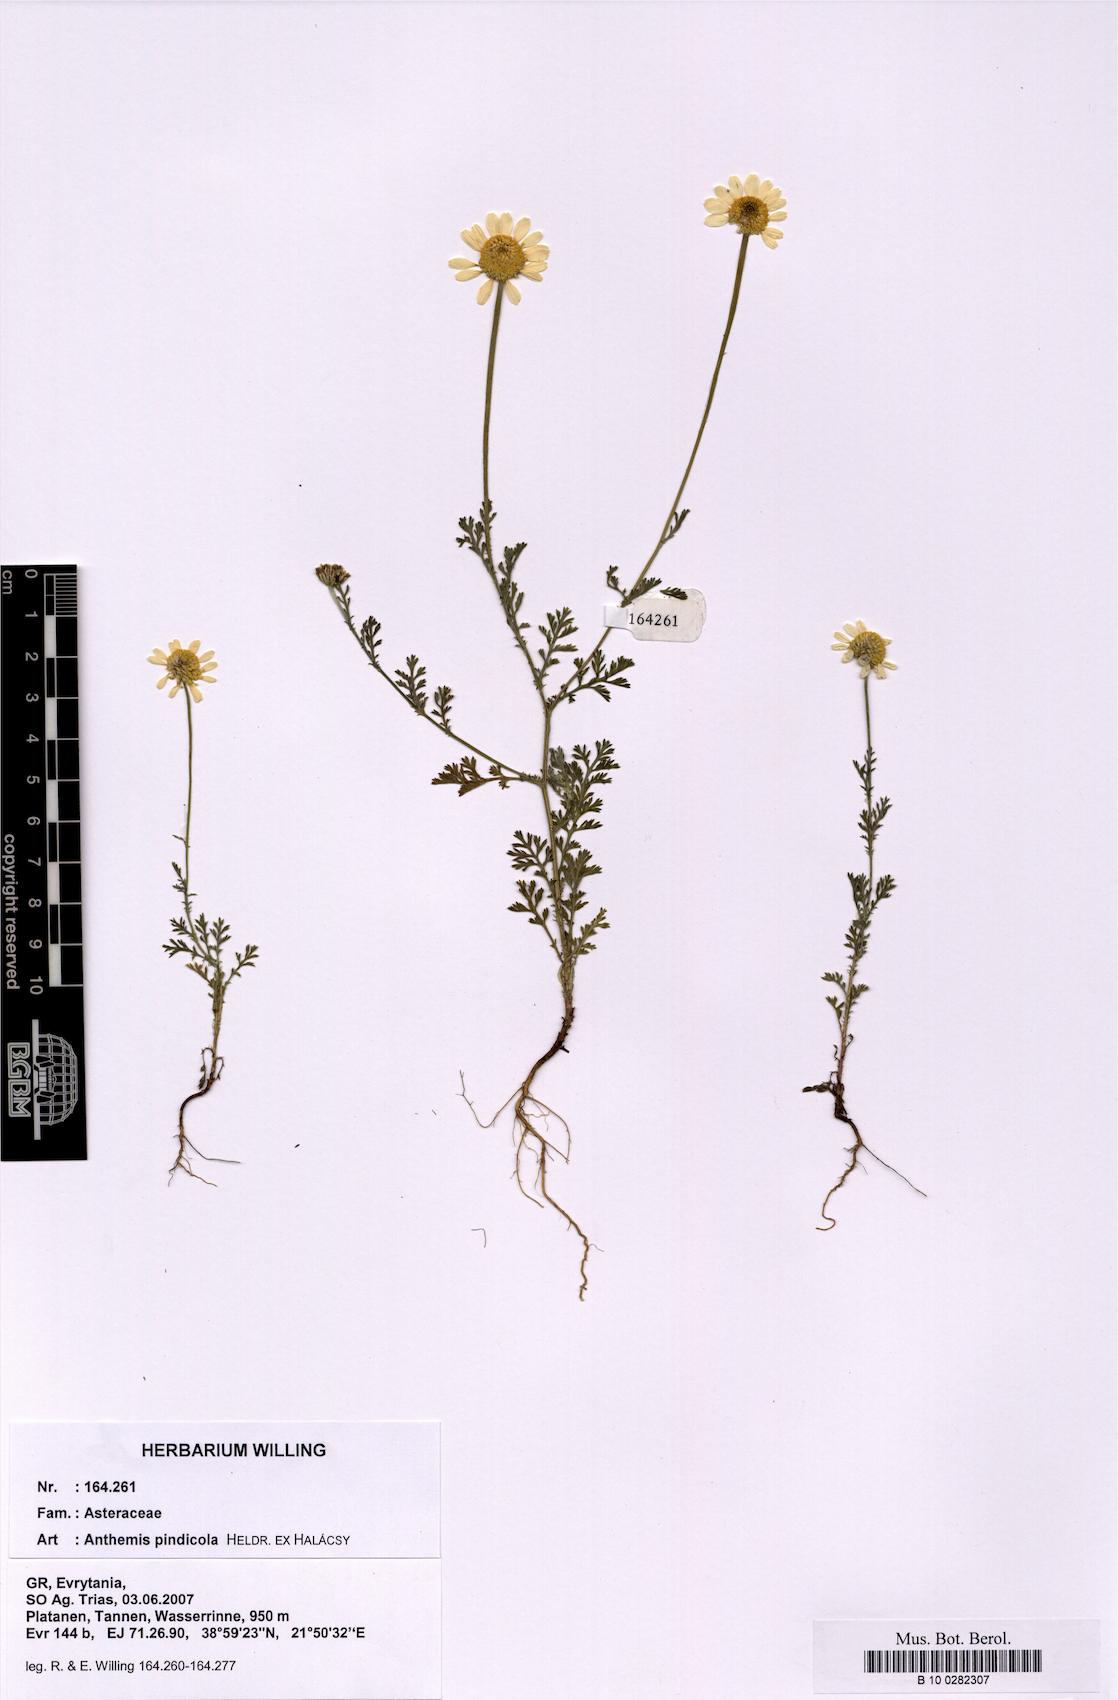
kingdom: Plantae
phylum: Tracheophyta
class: Magnoliopsida
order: Asterales
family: Asteraceae
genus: Anthemis
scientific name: Anthemis pindicola
